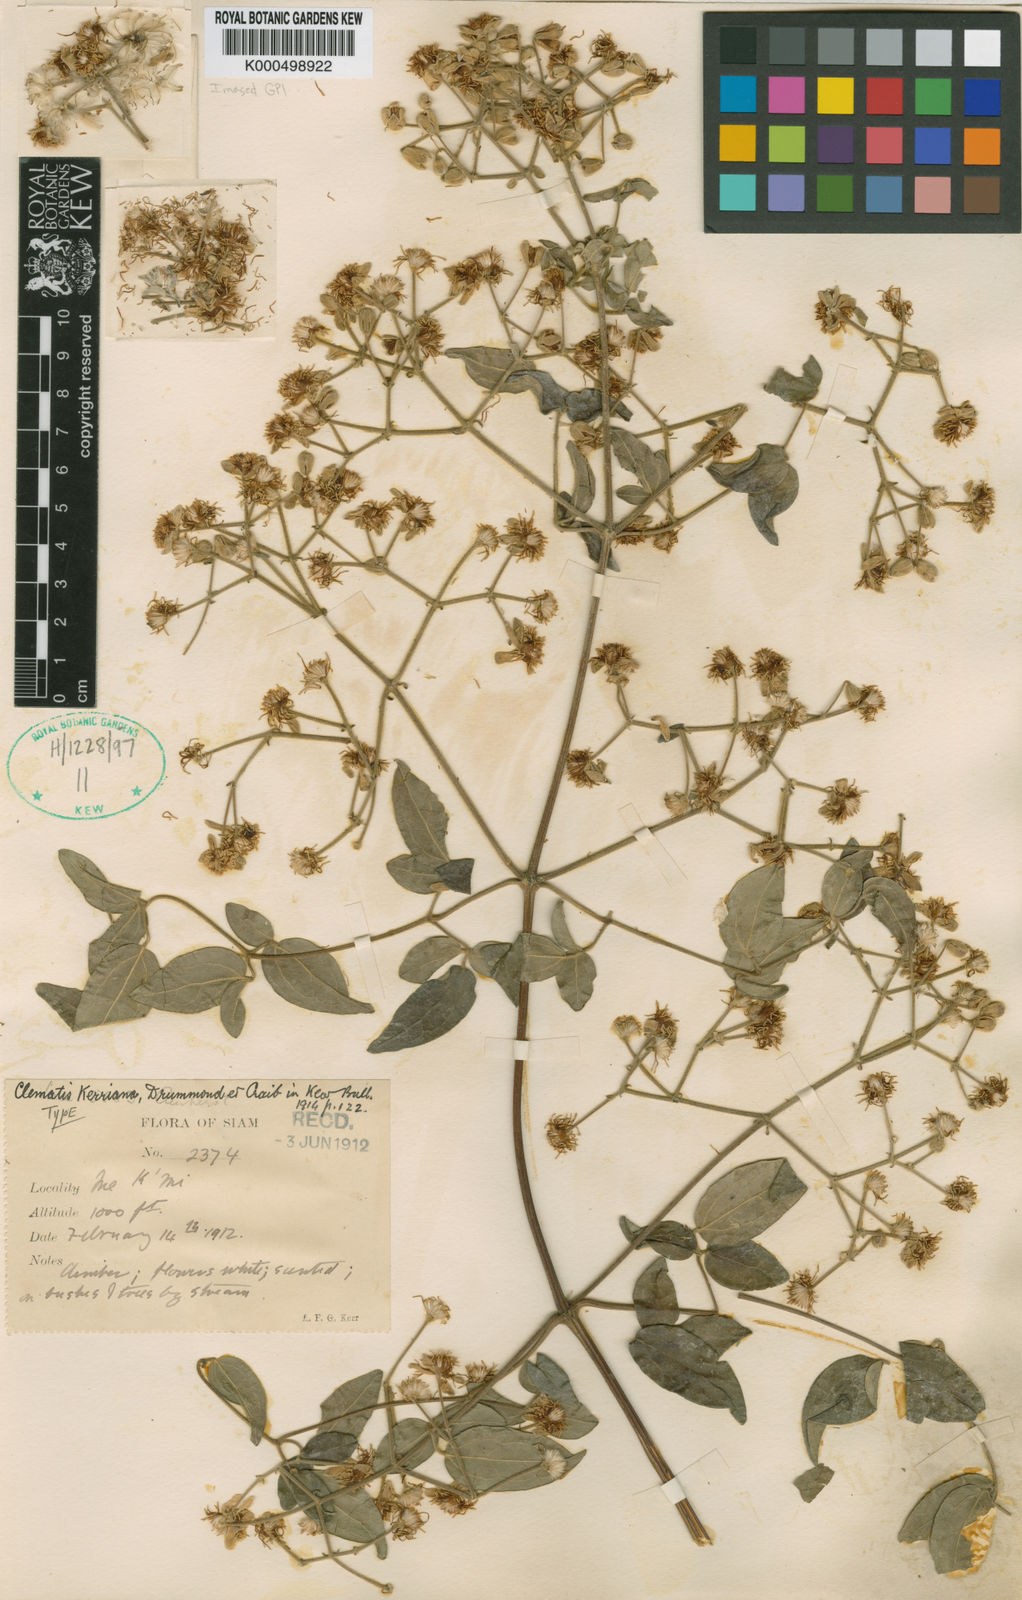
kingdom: Plantae
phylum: Tracheophyta
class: Magnoliopsida
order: Ranunculales
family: Ranunculaceae
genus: Clematis
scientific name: Clematis subumbellata
